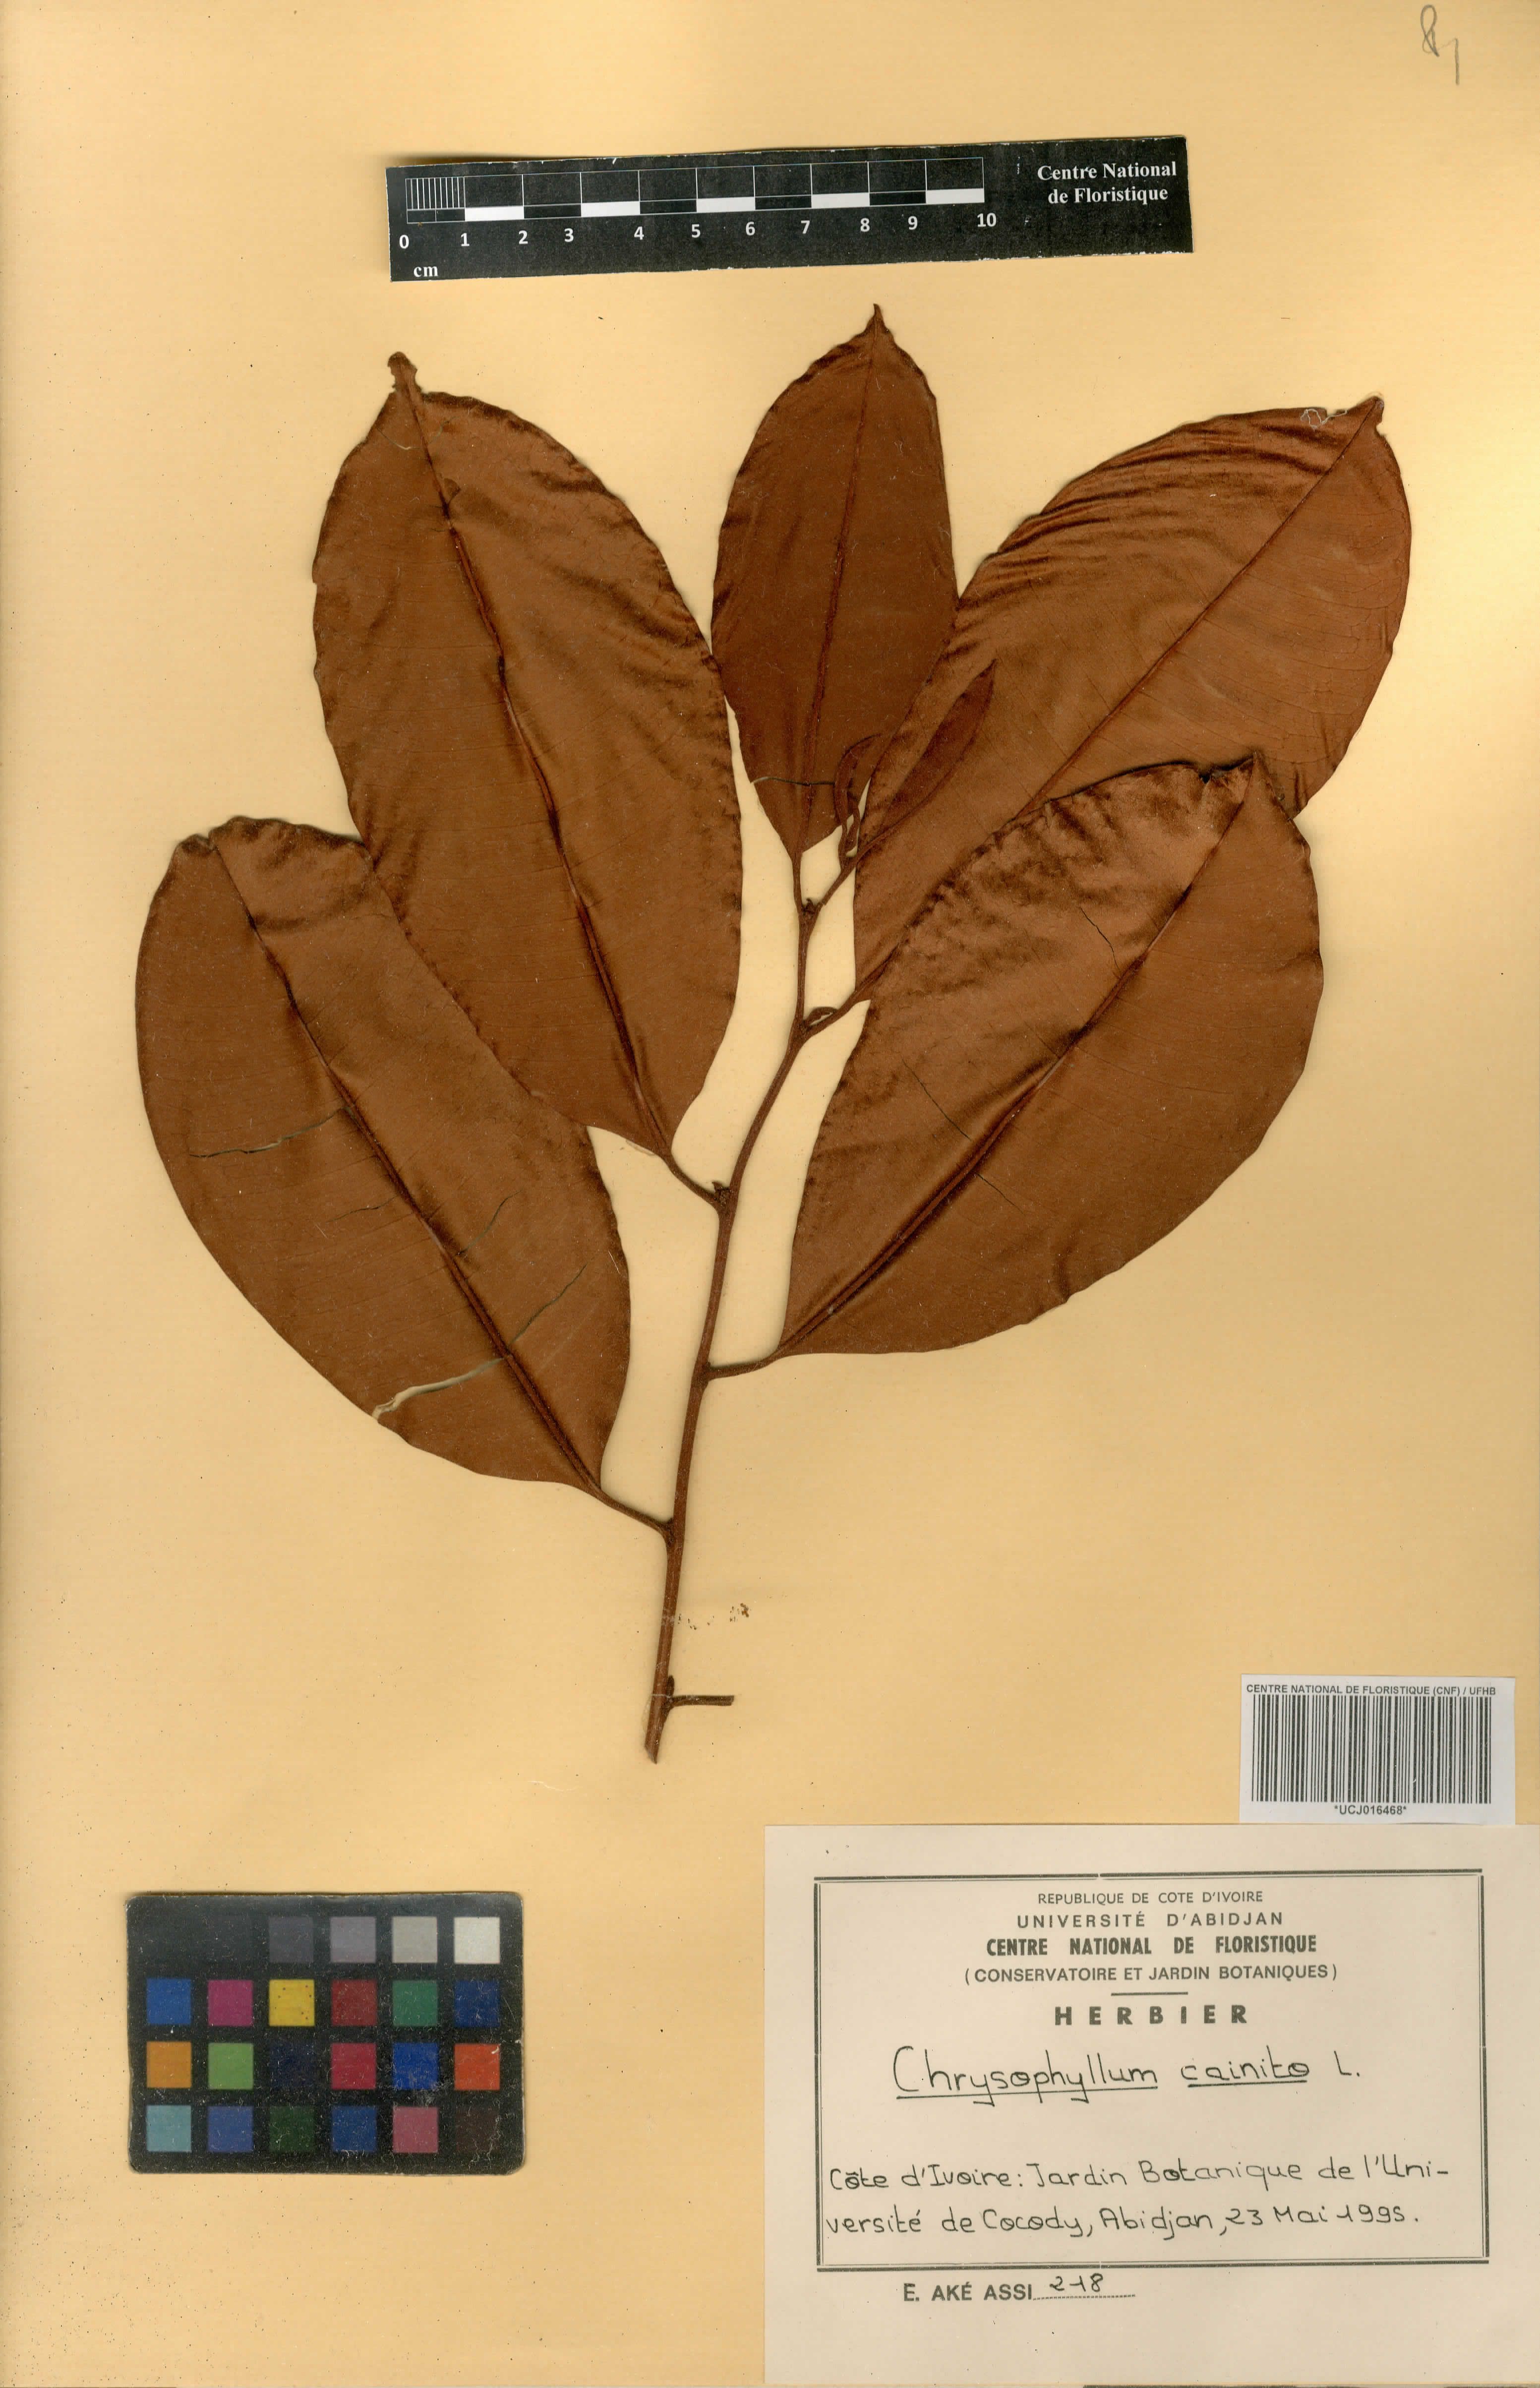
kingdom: Plantae
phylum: Tracheophyta
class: Magnoliopsida
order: Ericales
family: Sapotaceae
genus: Chrysophyllum
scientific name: Chrysophyllum cainito
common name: Star-apple
